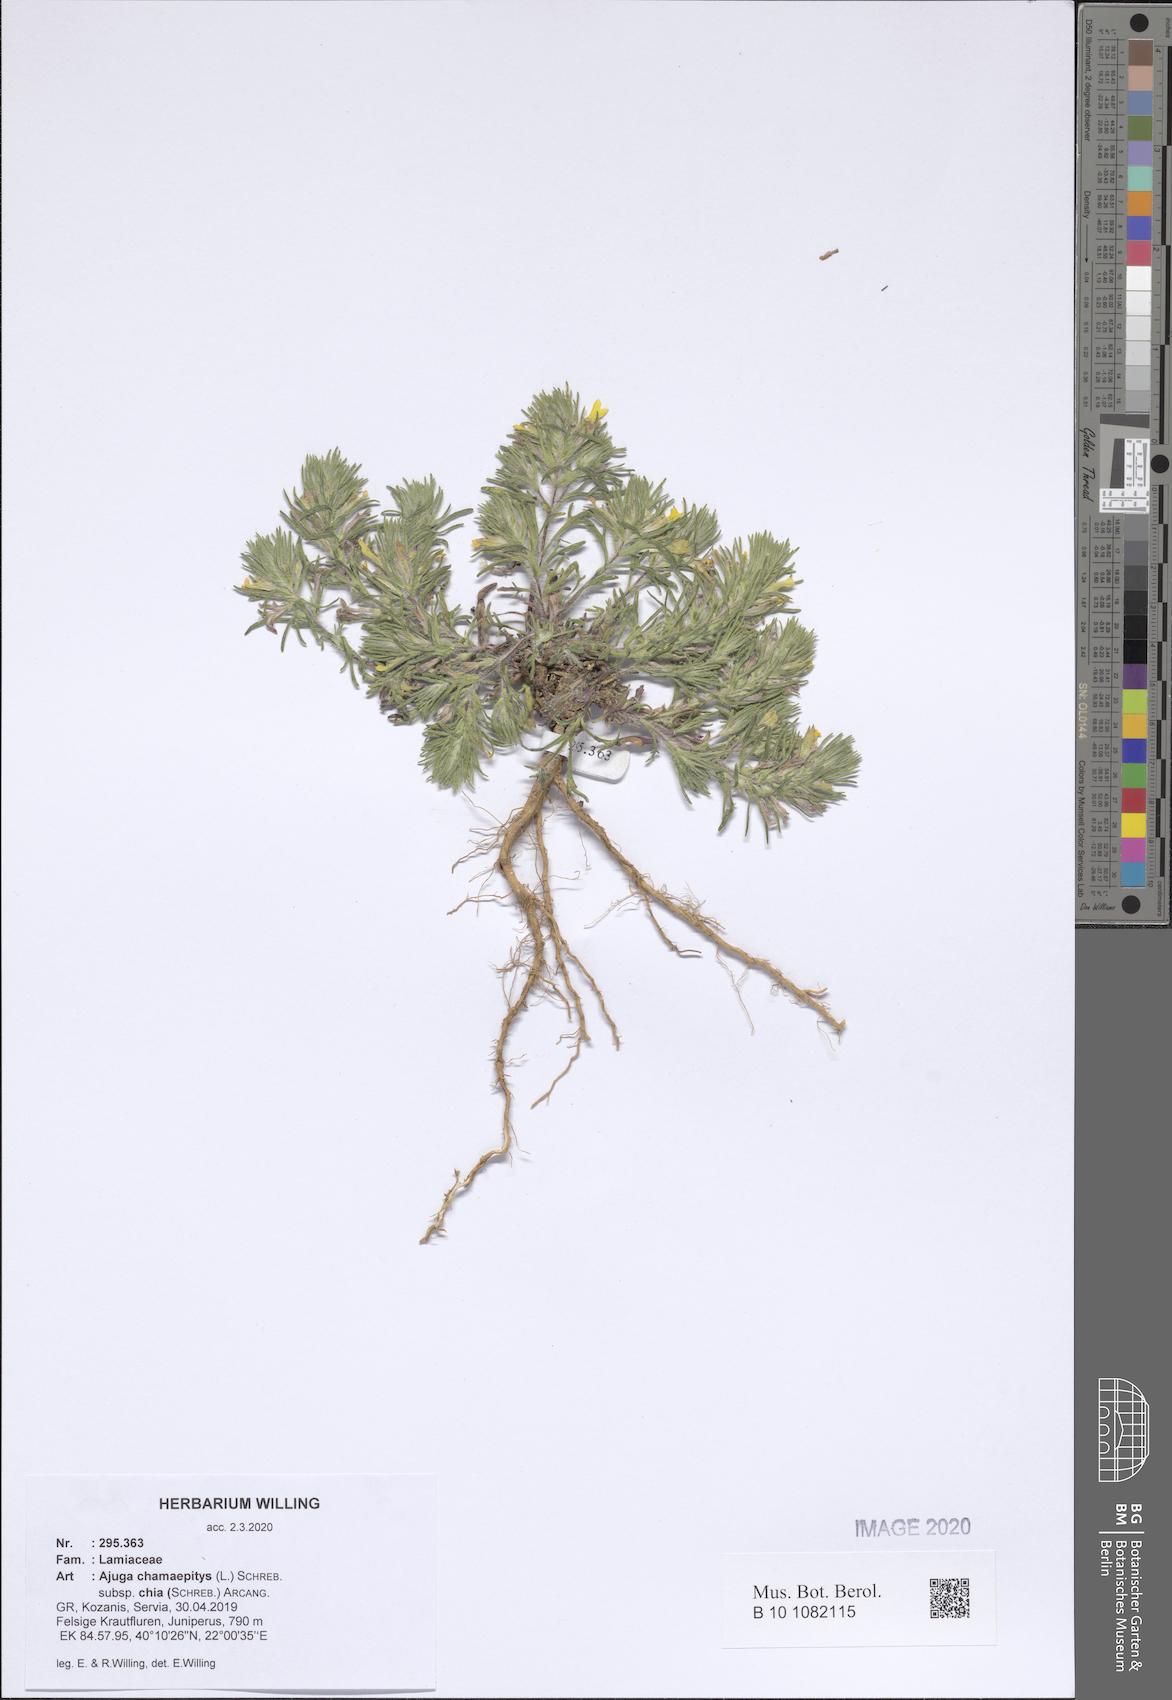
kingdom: Plantae
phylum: Tracheophyta
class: Magnoliopsida
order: Lamiales
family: Lamiaceae
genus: Ajuga
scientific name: Ajuga chamaepitys
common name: Ground-pine
